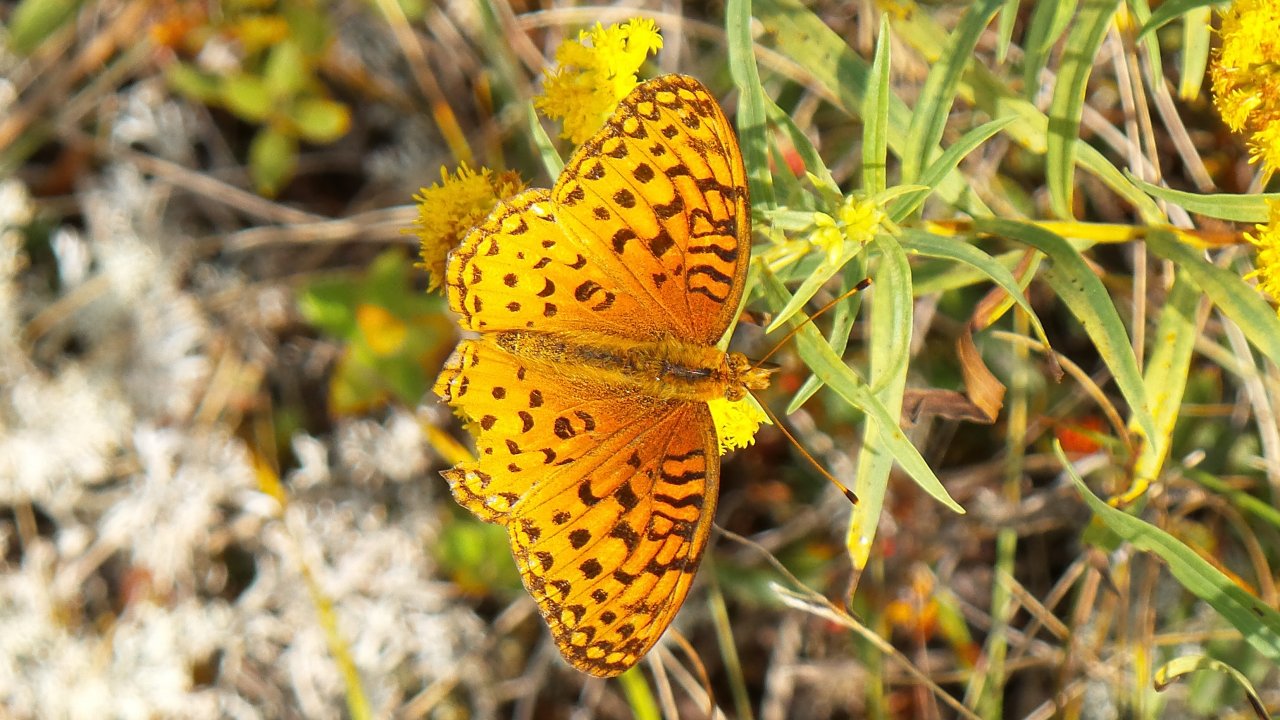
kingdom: Animalia
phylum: Arthropoda
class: Insecta
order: Lepidoptera
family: Nymphalidae
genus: Speyeria
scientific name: Speyeria aphrodite
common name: Aphrodite Fritillary
